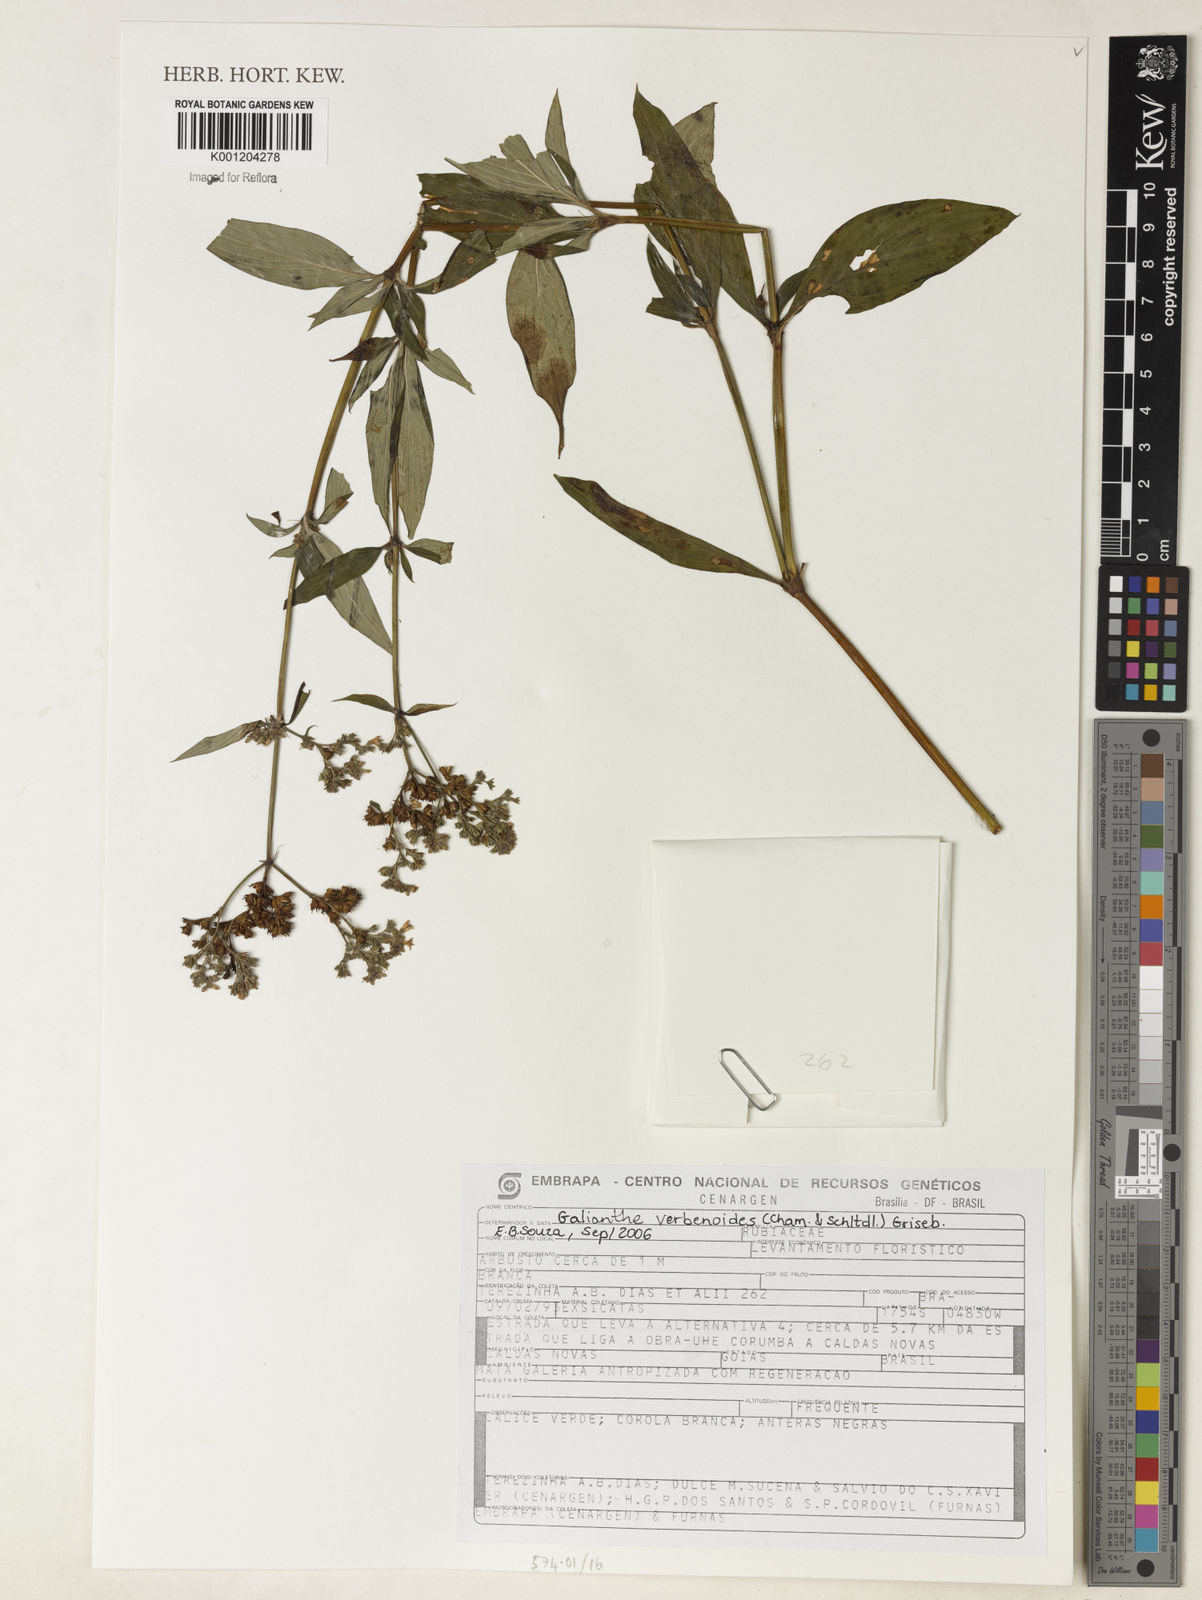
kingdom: Plantae
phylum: Tracheophyta
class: Magnoliopsida
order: Gentianales
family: Rubiaceae
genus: Galianthe
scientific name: Galianthe verbenoides
